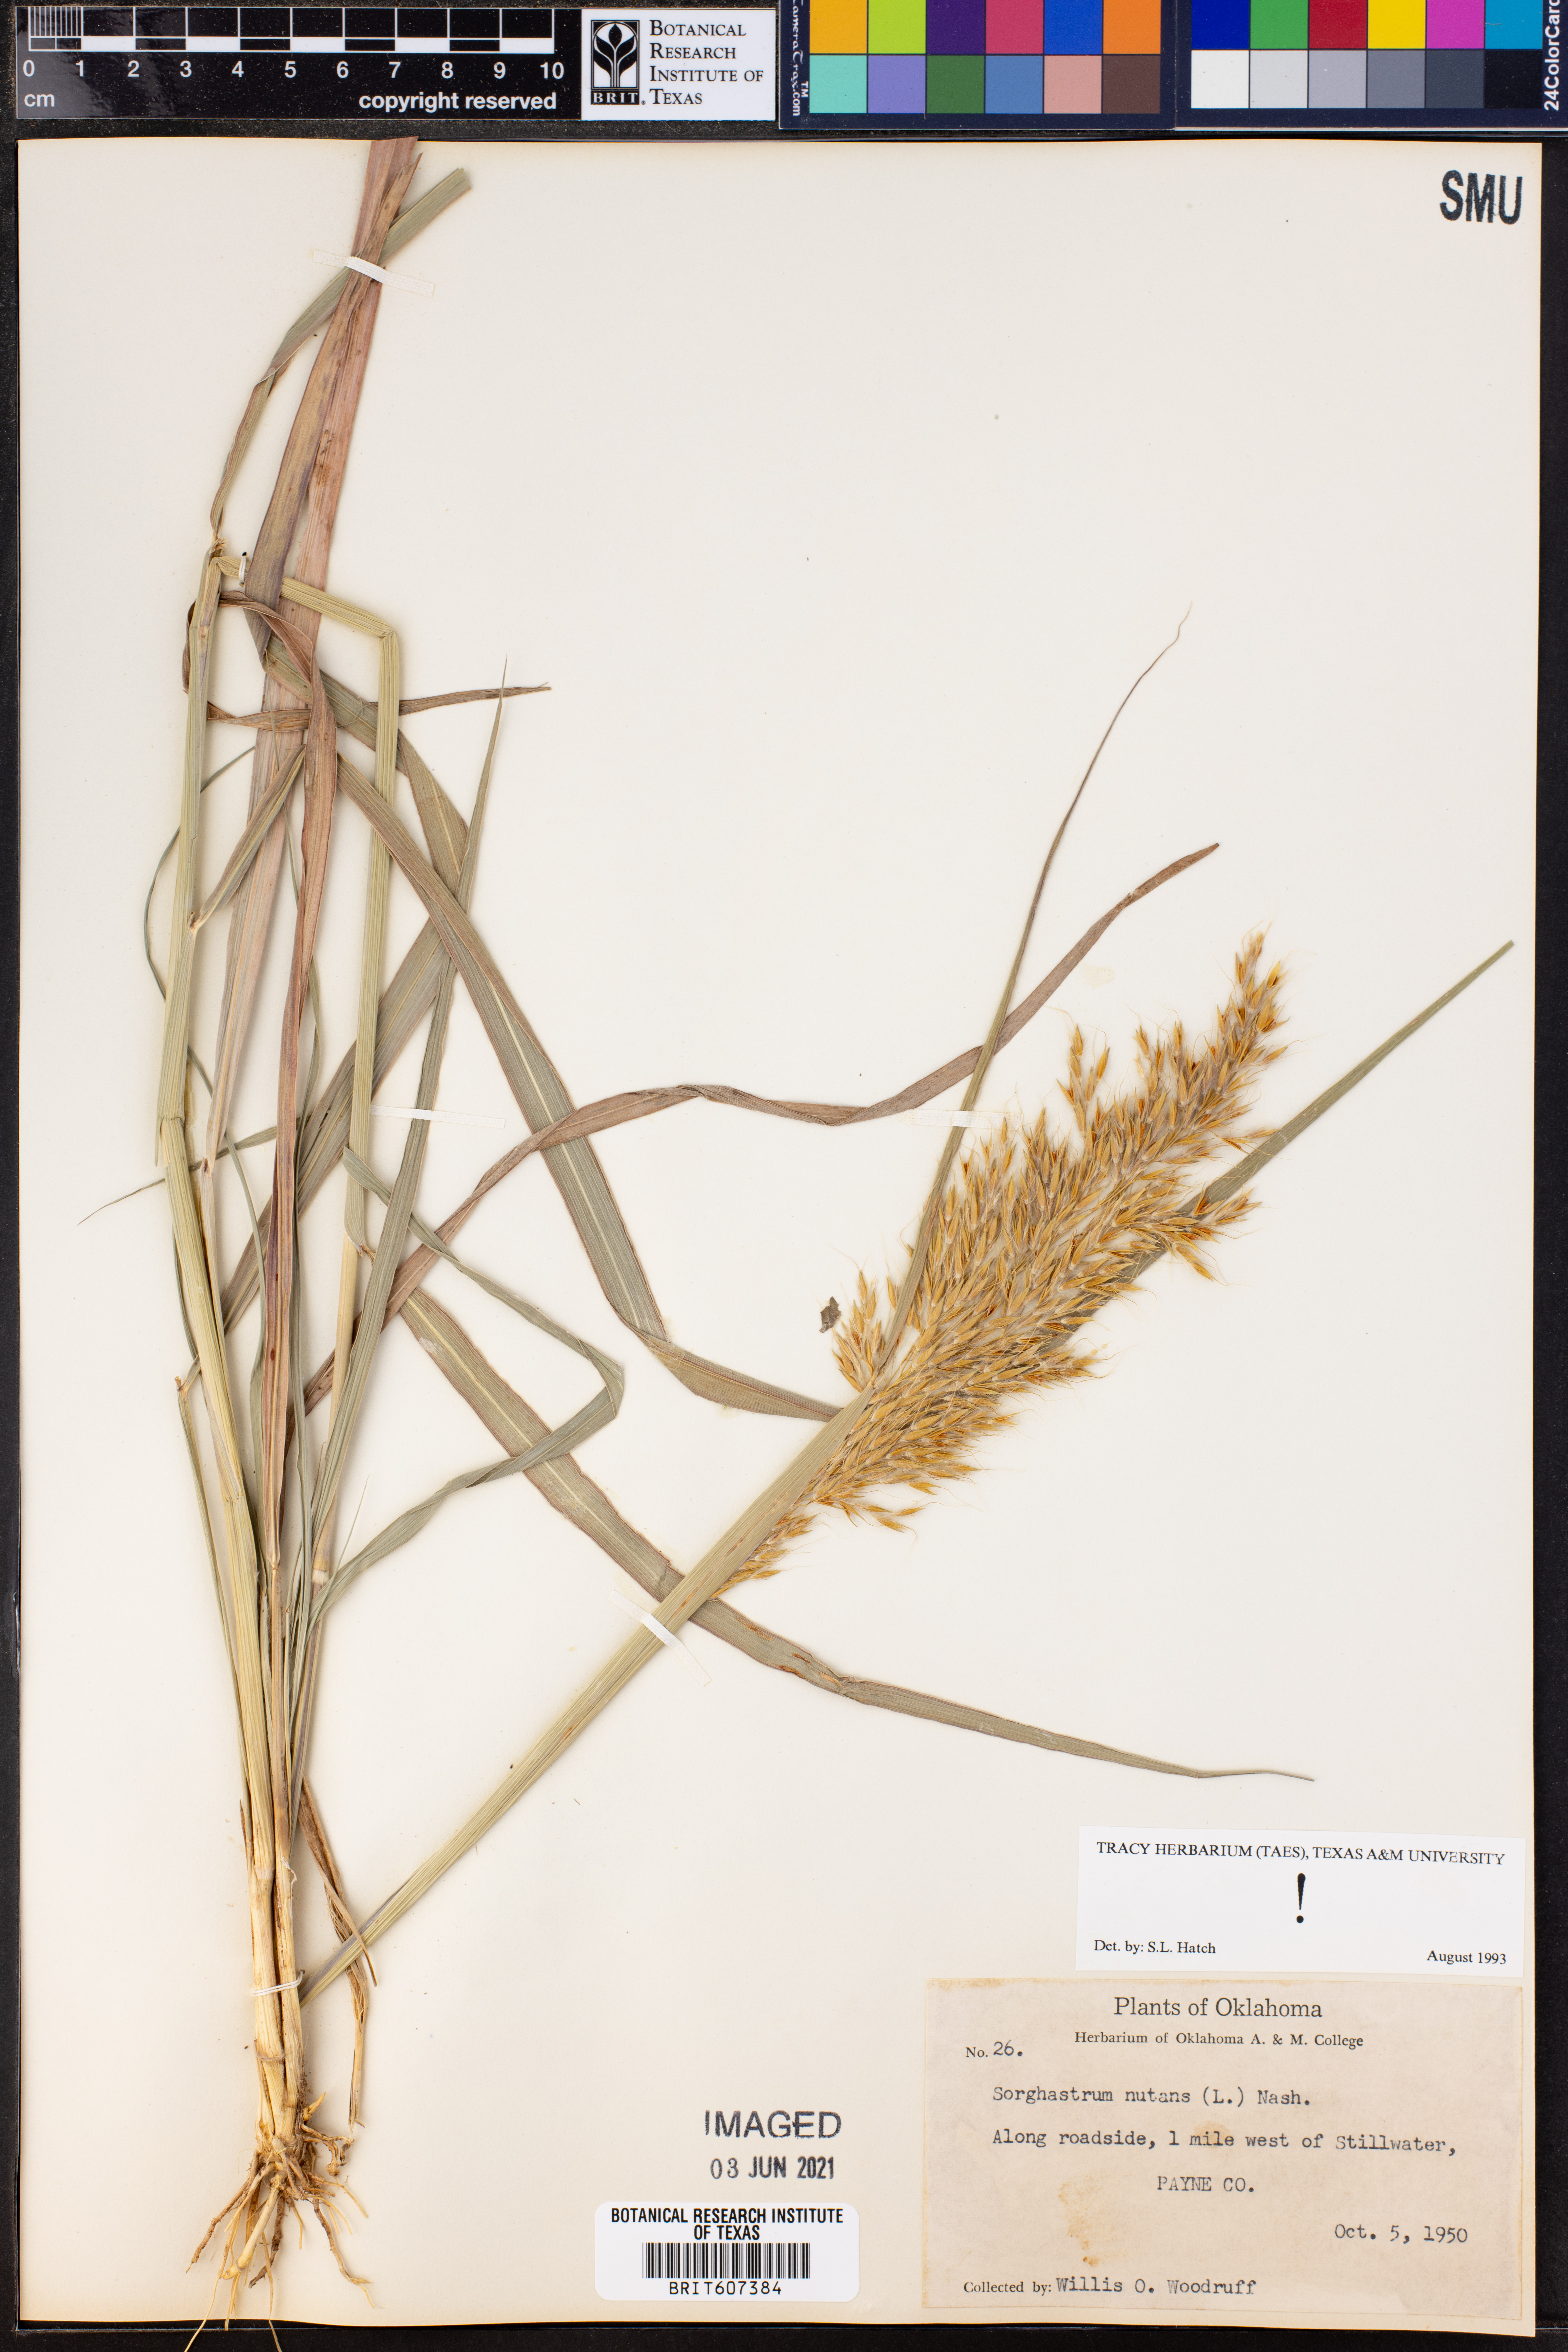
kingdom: Plantae
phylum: Tracheophyta
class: Liliopsida
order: Poales
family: Poaceae
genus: Sorghastrum
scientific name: Sorghastrum nutans
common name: Indian grass
